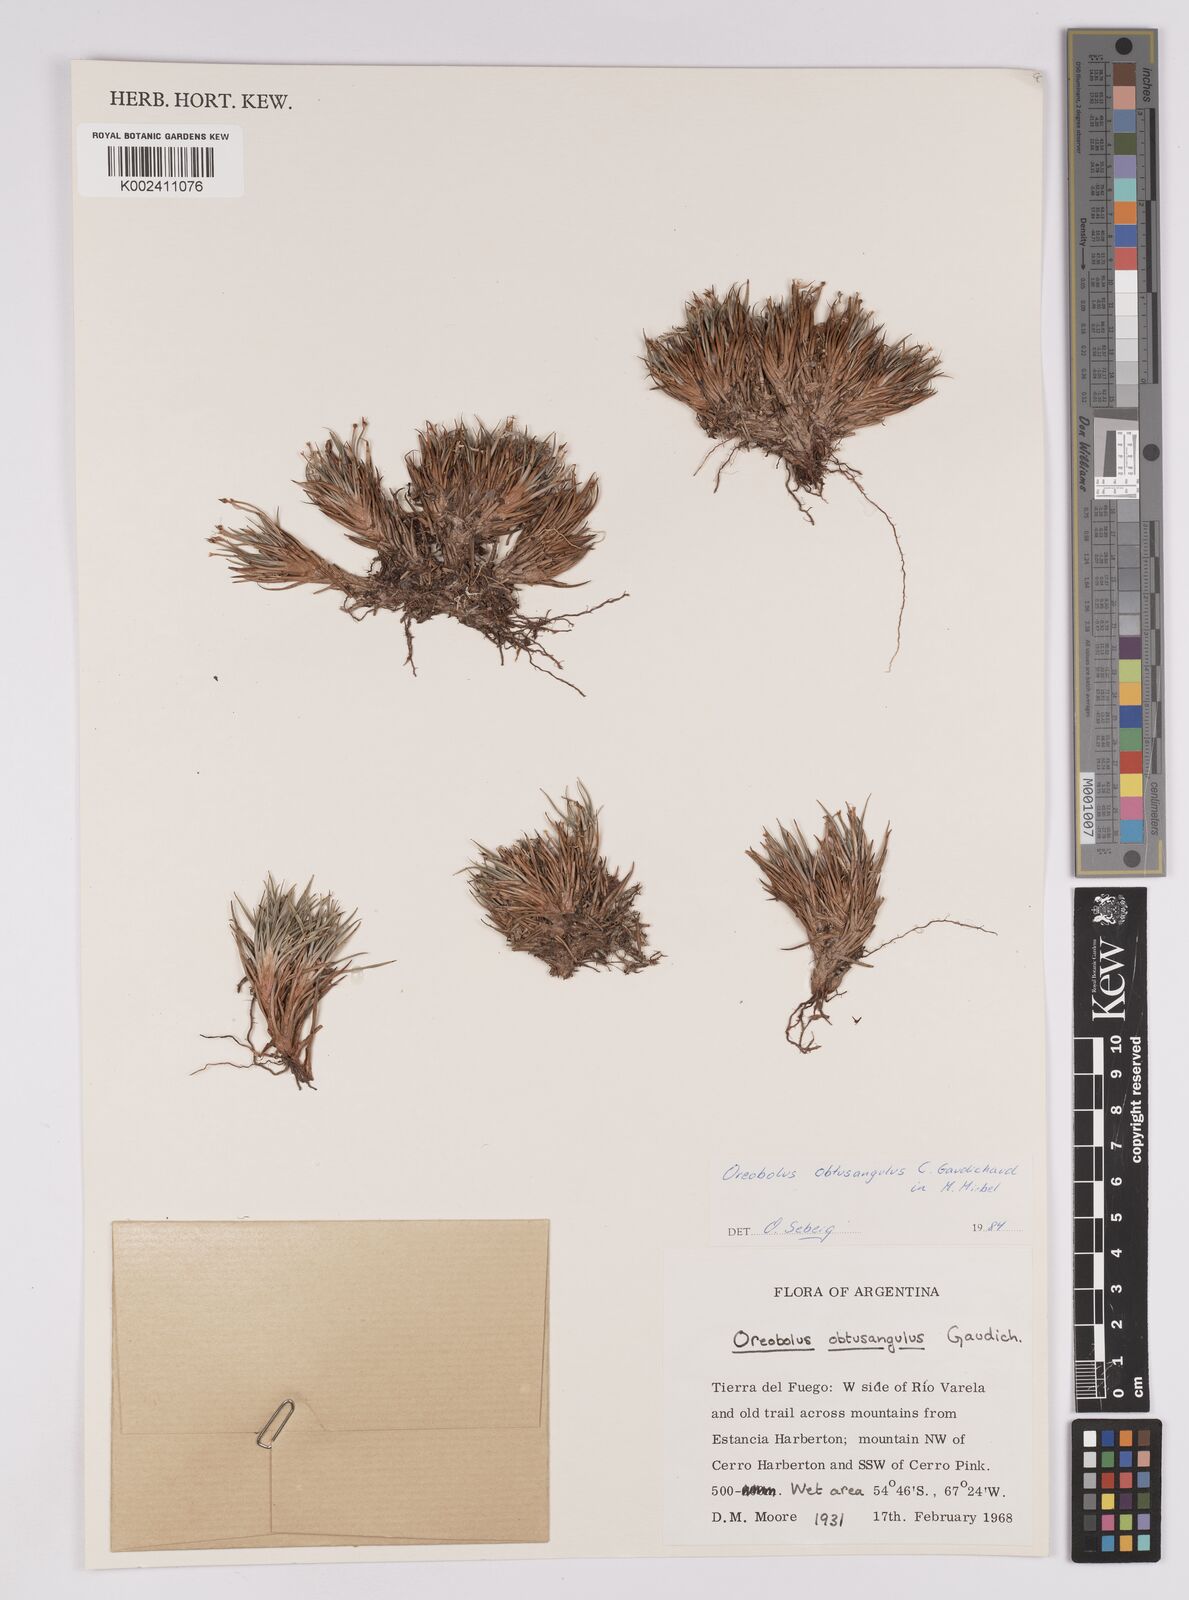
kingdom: Plantae
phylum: Tracheophyta
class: Liliopsida
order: Poales
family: Cyperaceae
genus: Oreobolus
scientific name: Oreobolus obtusangulus
